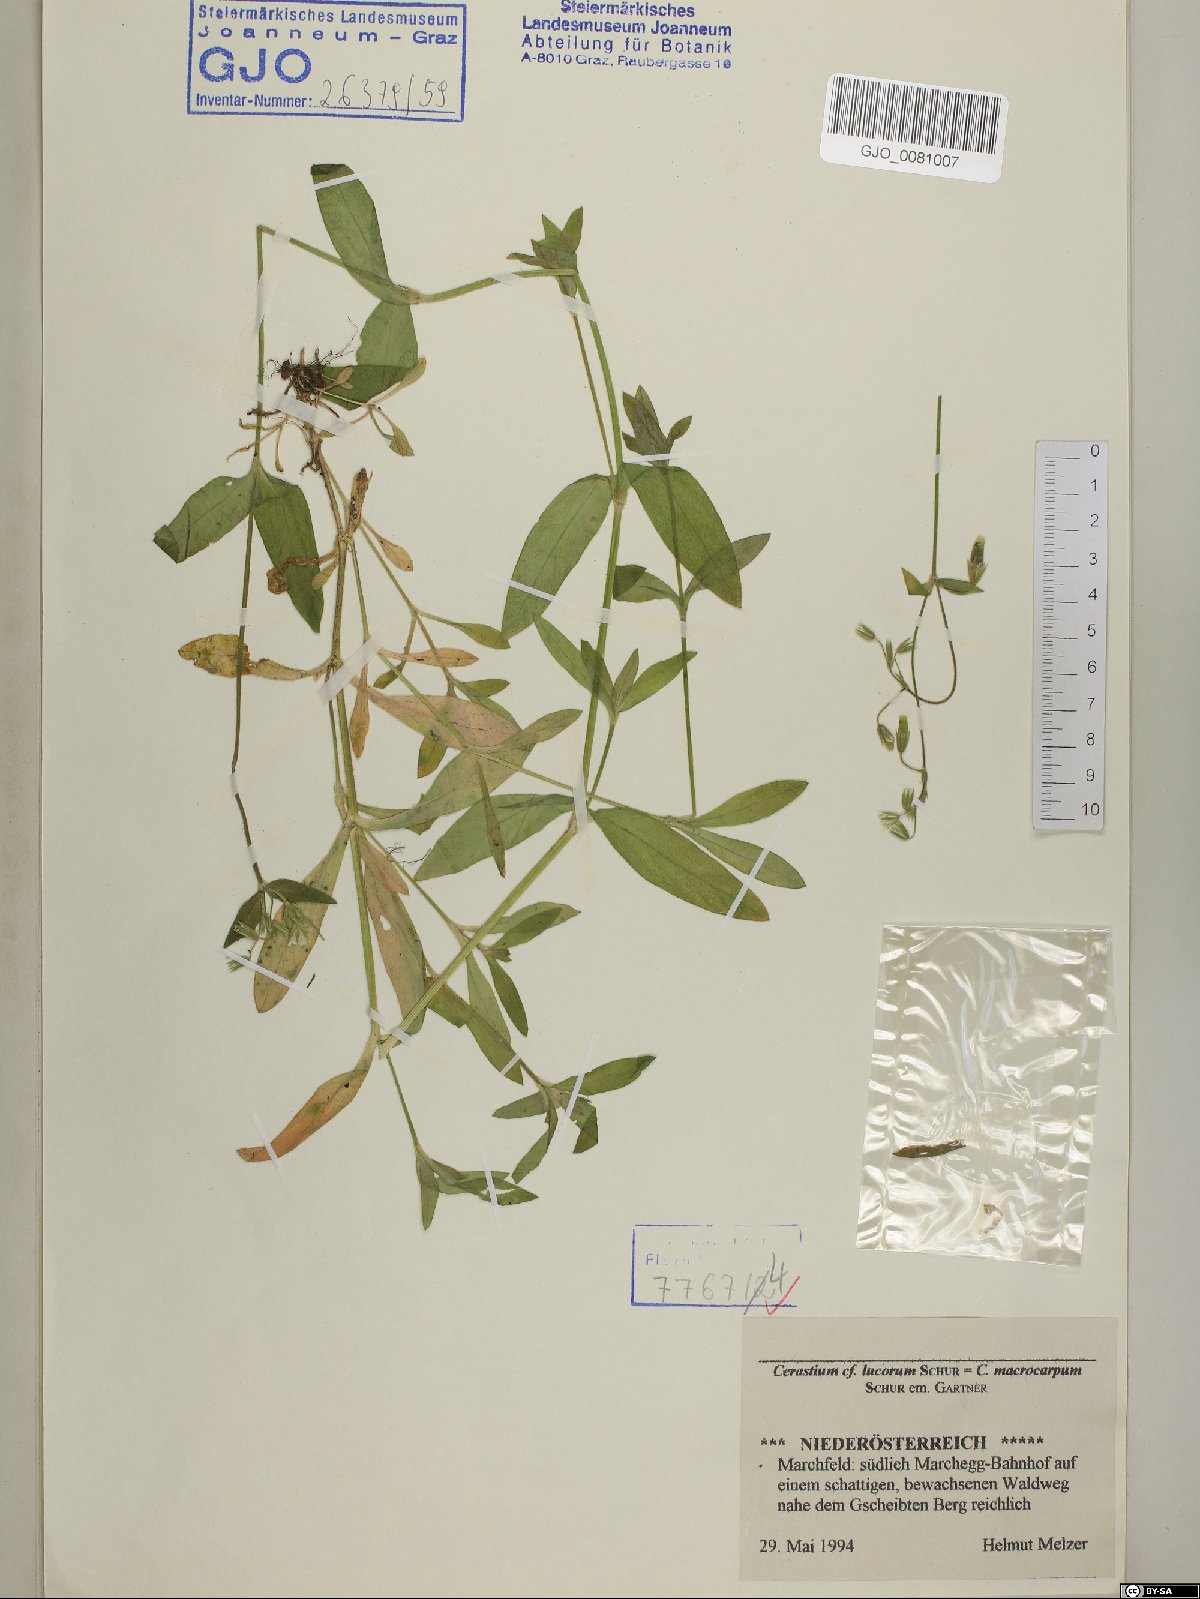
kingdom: Plantae
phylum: Tracheophyta
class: Magnoliopsida
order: Caryophyllales
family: Caryophyllaceae
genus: Cerastium
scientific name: Cerastium lucorum
